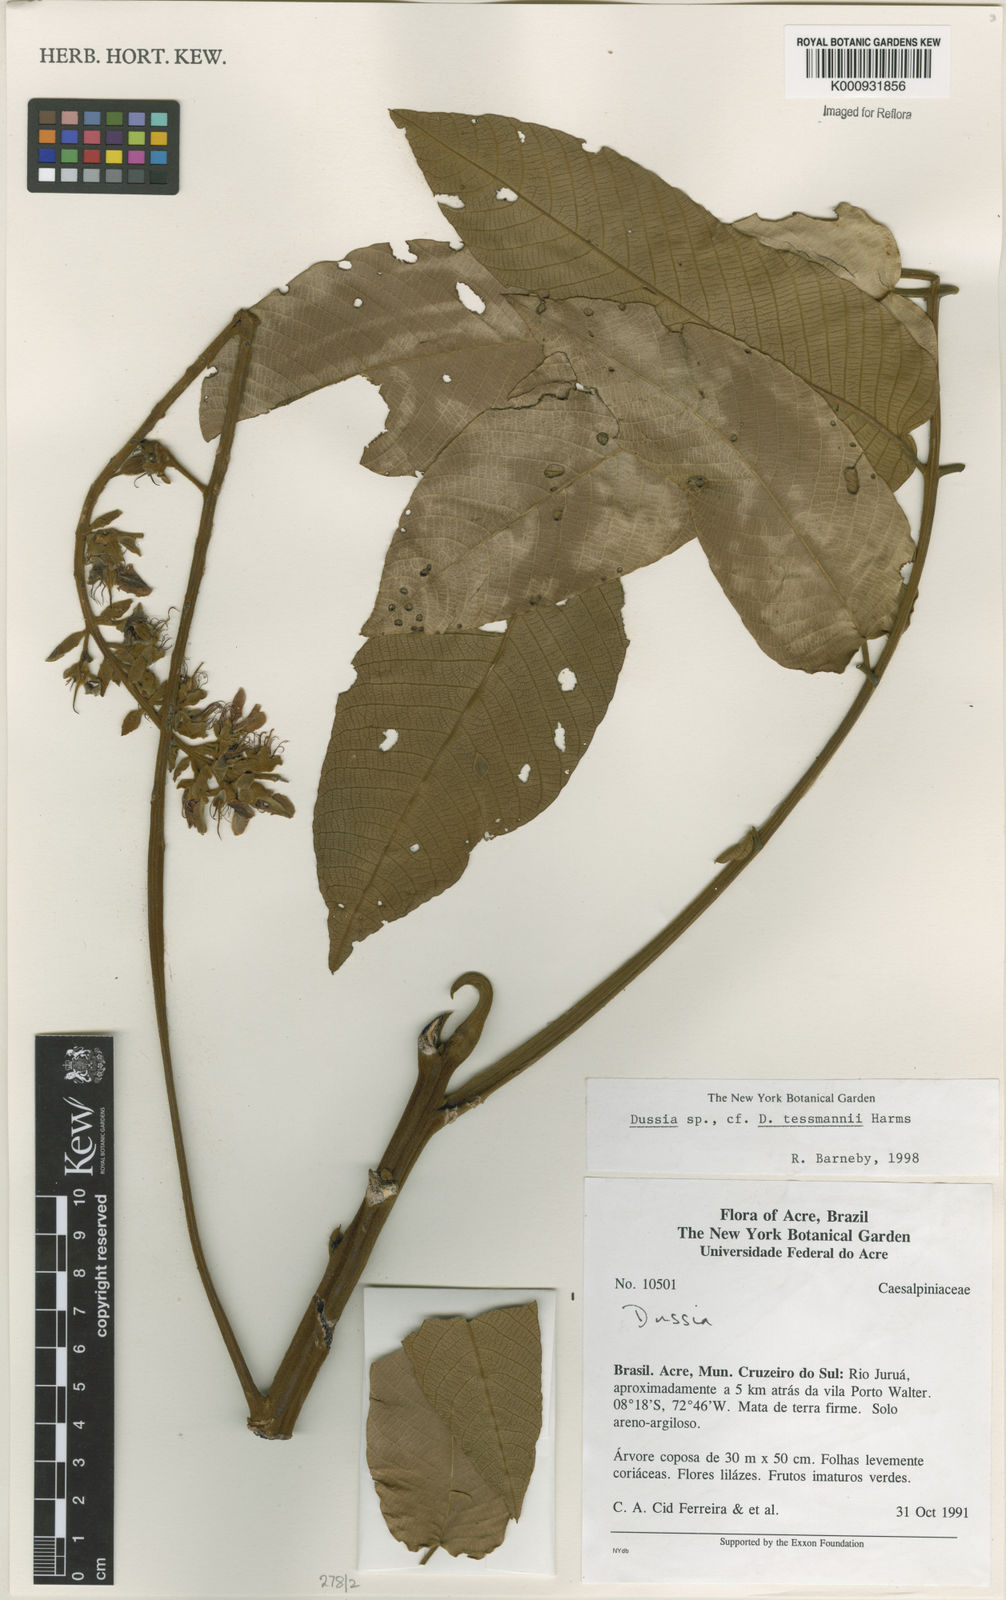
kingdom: Plantae
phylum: Tracheophyta
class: Magnoliopsida
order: Fabales
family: Fabaceae
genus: Dussia
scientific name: Dussia tessmannii
